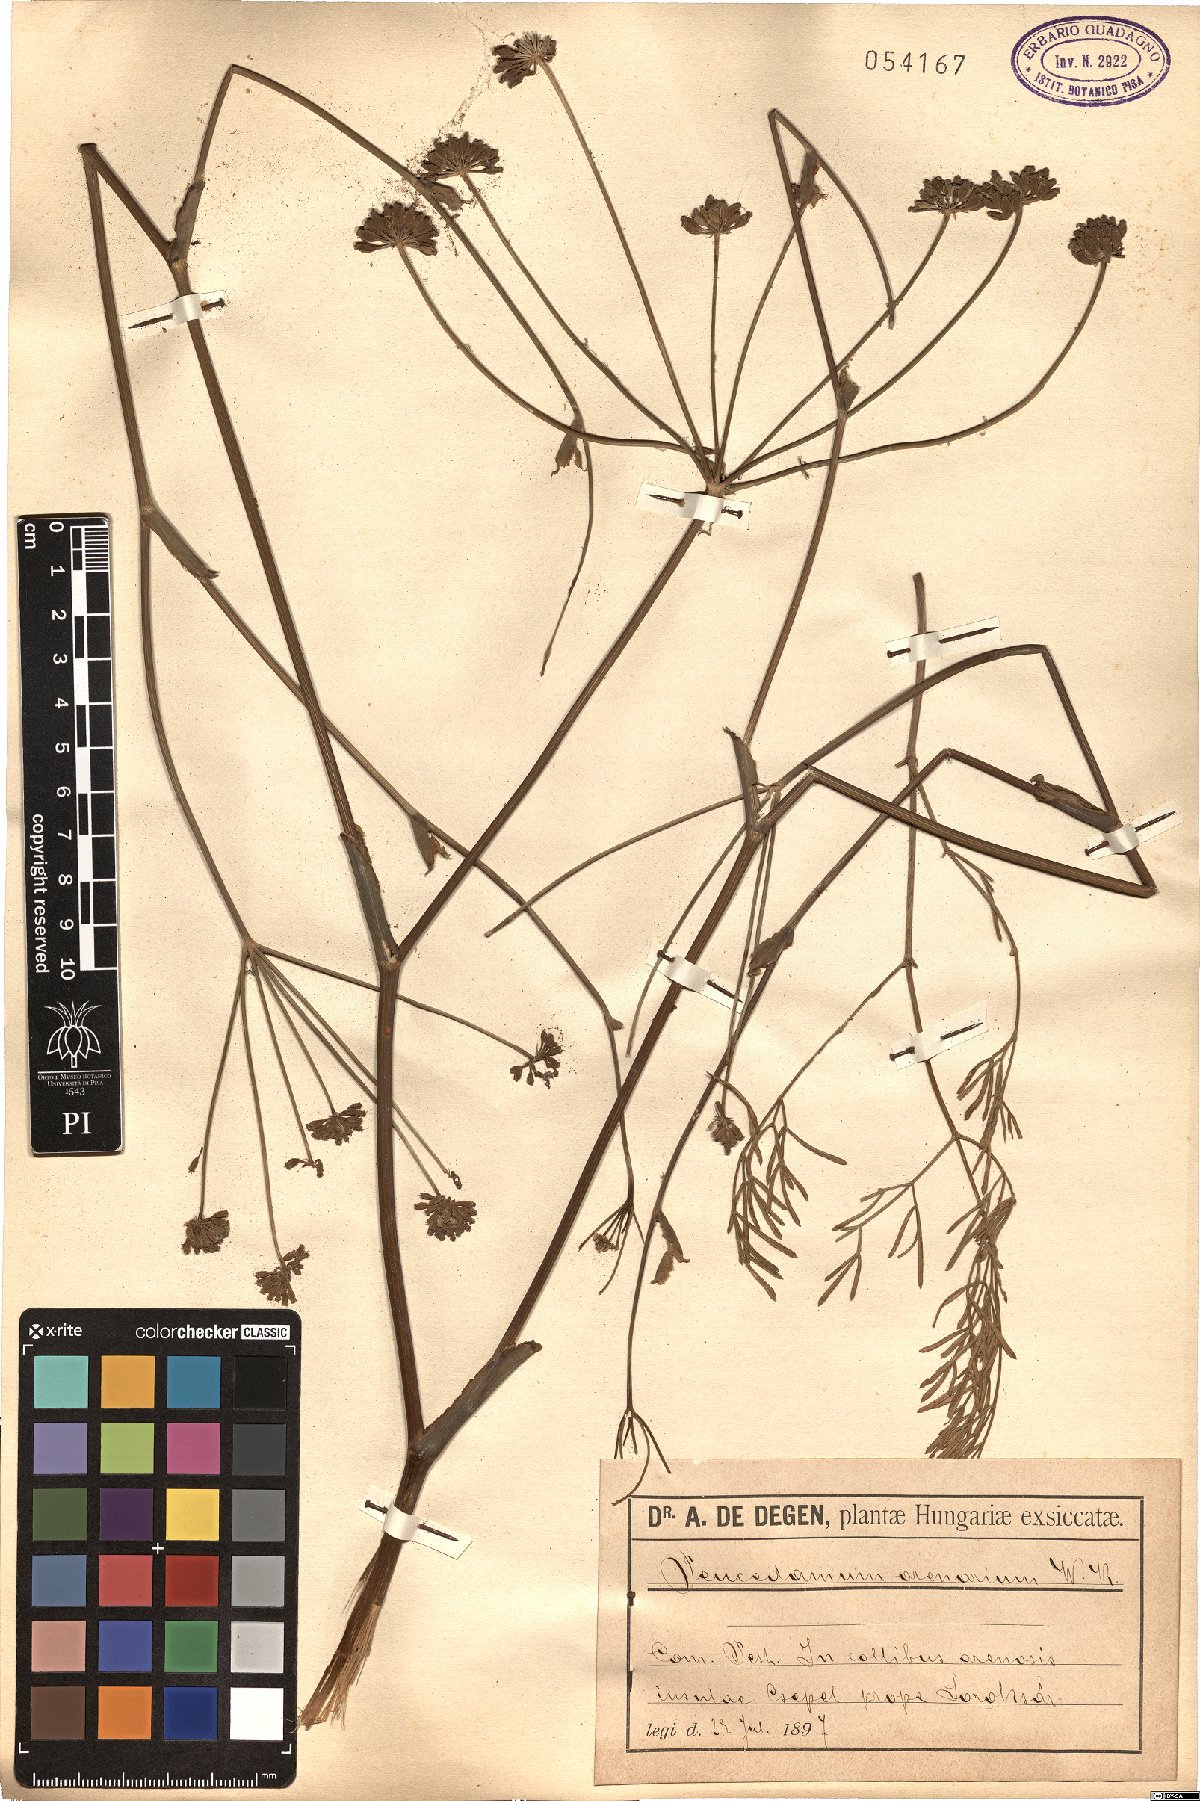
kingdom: Plantae
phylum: Tracheophyta
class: Magnoliopsida
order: Apiales
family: Apiaceae
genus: Taeniopetalum
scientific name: Taeniopetalum arenarium
